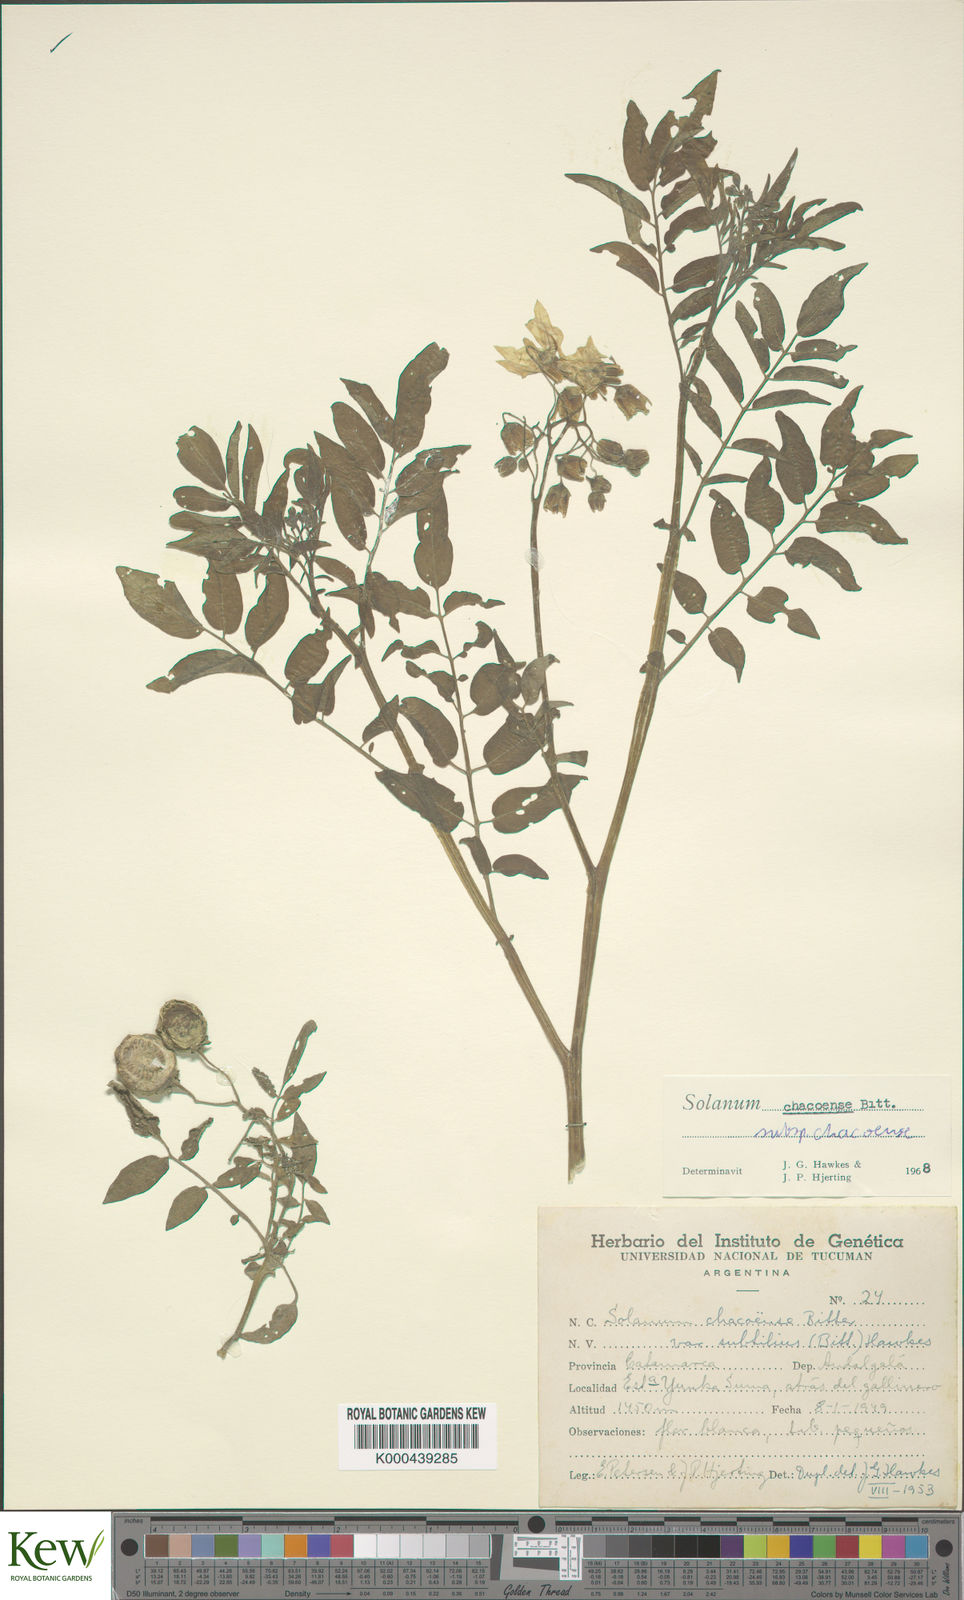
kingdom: Plantae
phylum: Tracheophyta
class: Magnoliopsida
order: Solanales
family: Solanaceae
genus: Solanum
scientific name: Solanum chacoense
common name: Chaco potato
